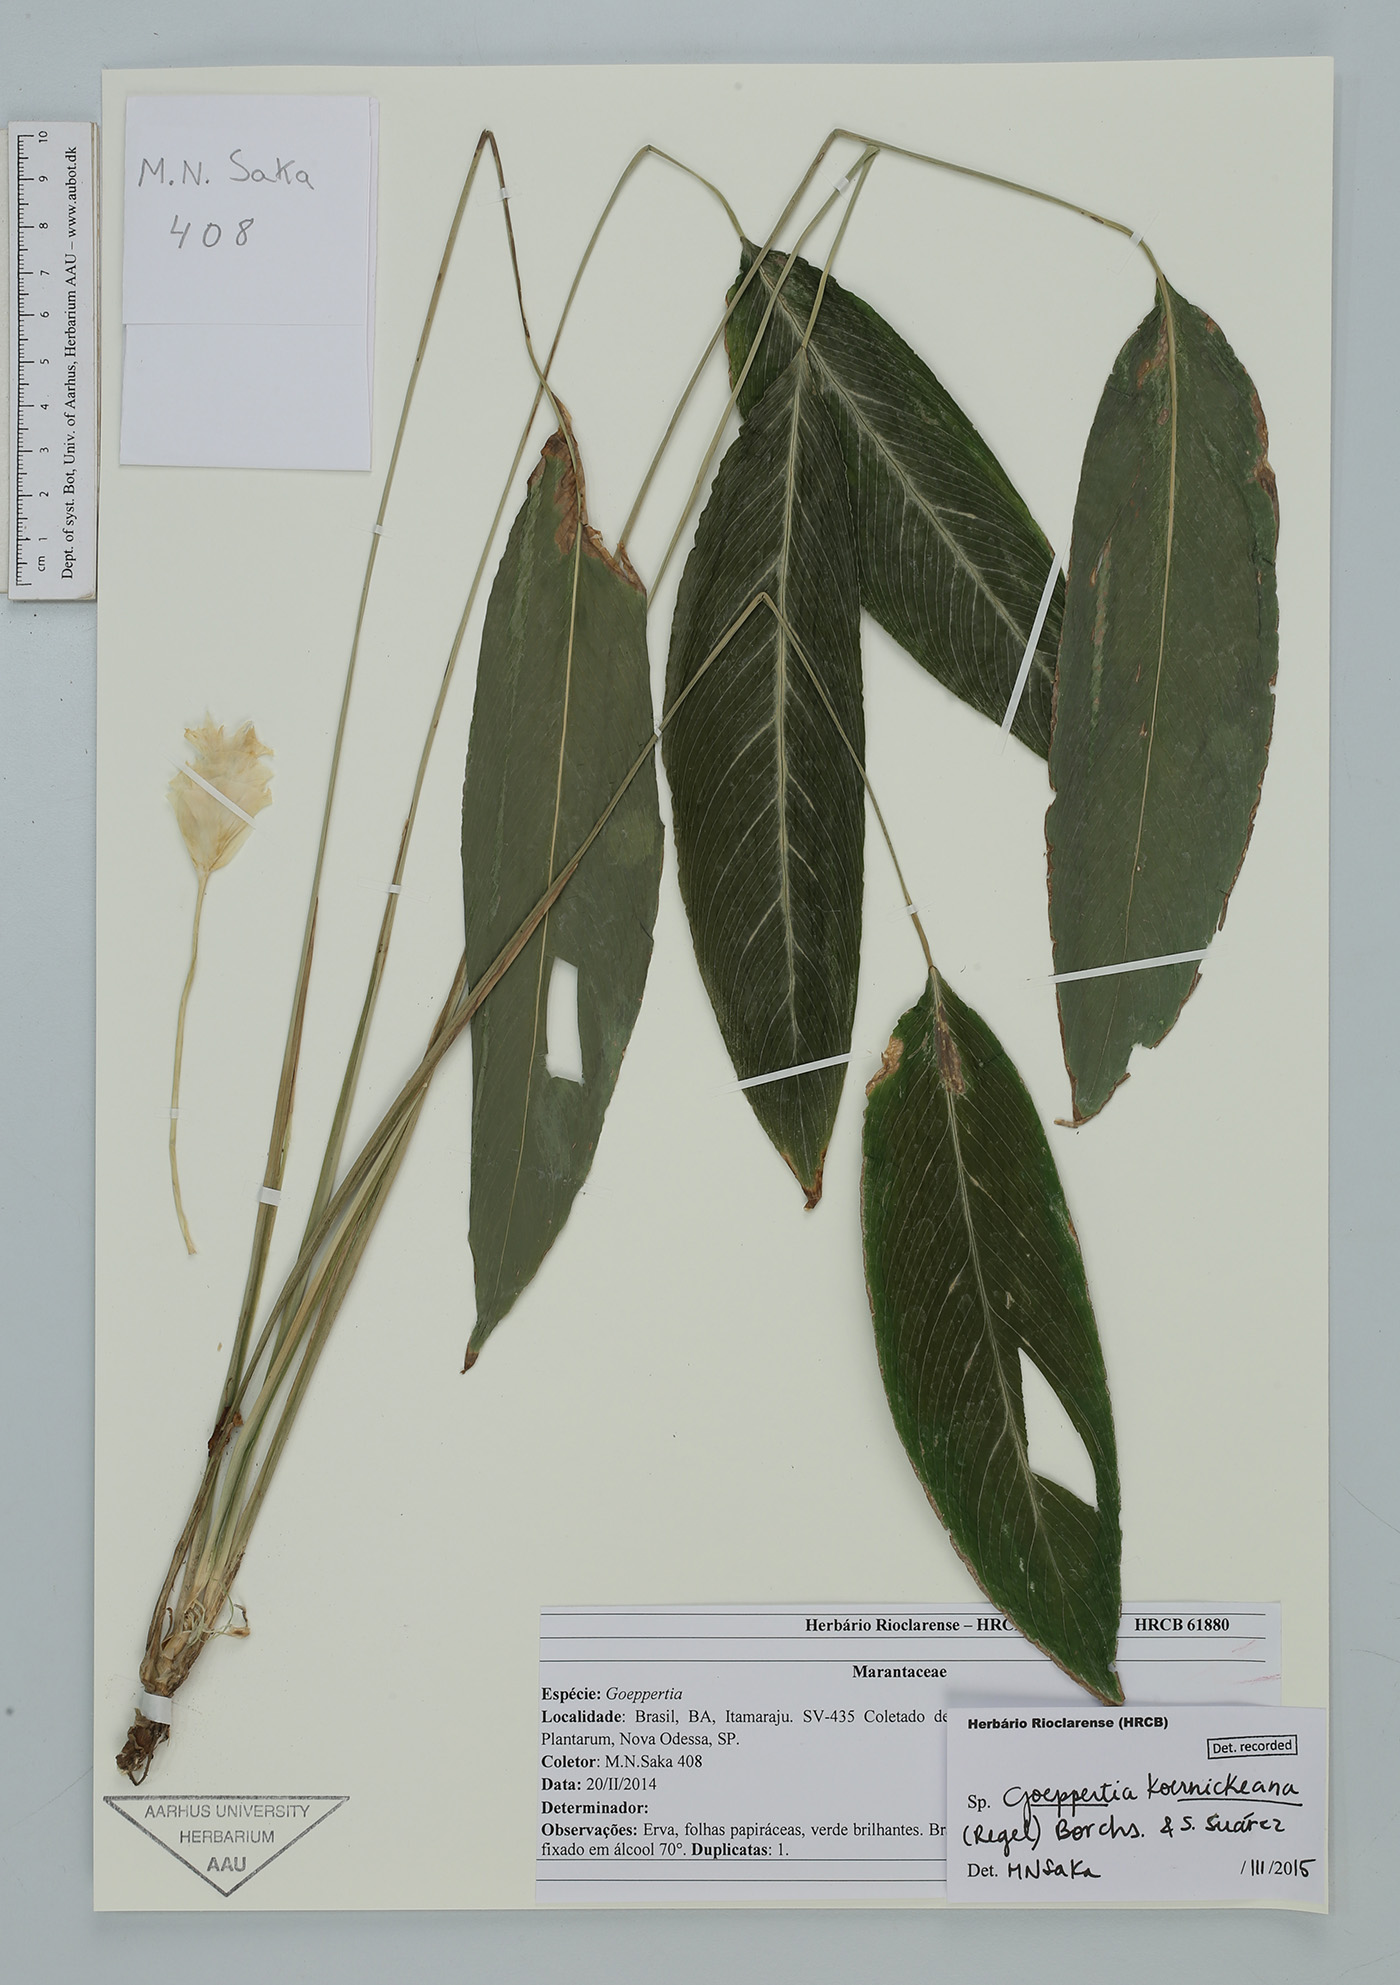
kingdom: Plantae
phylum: Tracheophyta
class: Liliopsida
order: Zingiberales
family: Marantaceae
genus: Goeppertia
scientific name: Goeppertia brasiliensis
